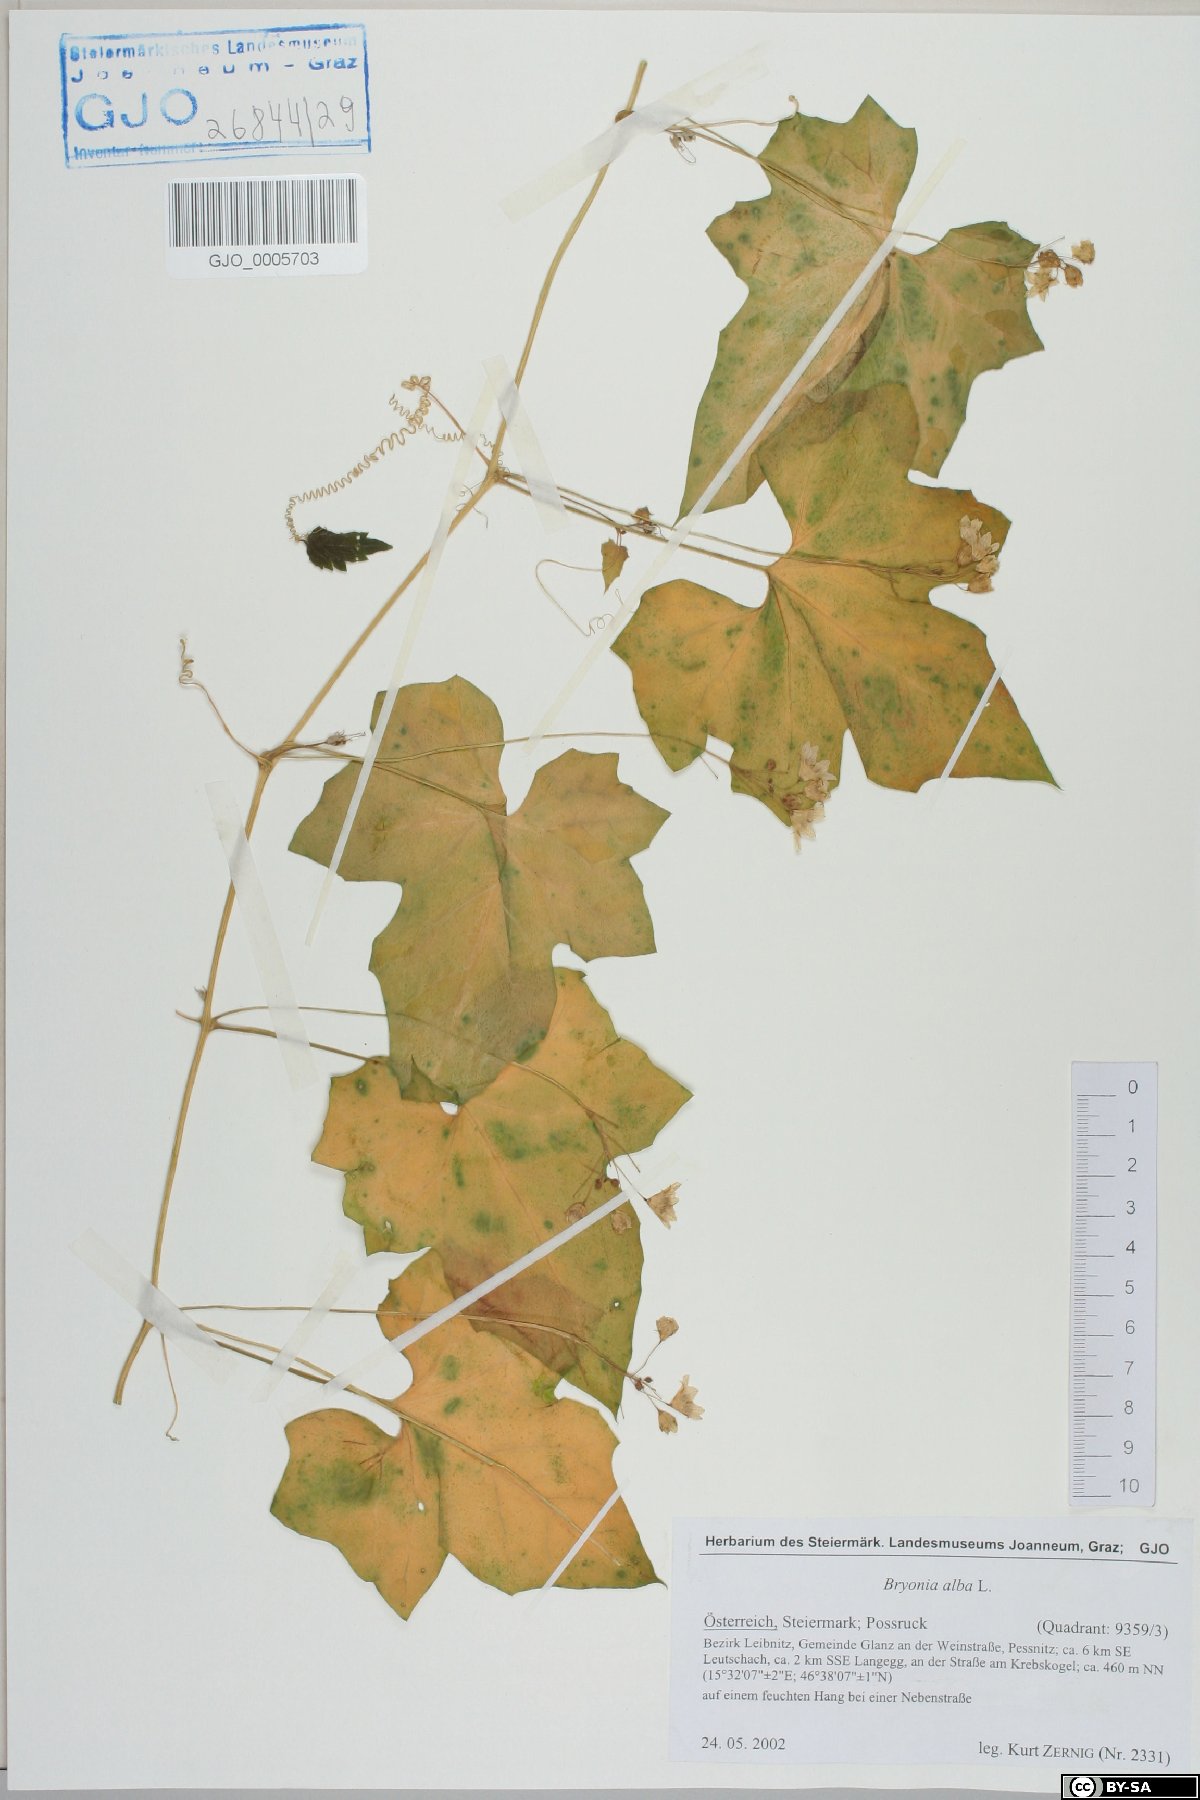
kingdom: Plantae
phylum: Tracheophyta
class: Magnoliopsida
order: Cucurbitales
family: Cucurbitaceae
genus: Bryonia
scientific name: Bryonia alba
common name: White bryony
